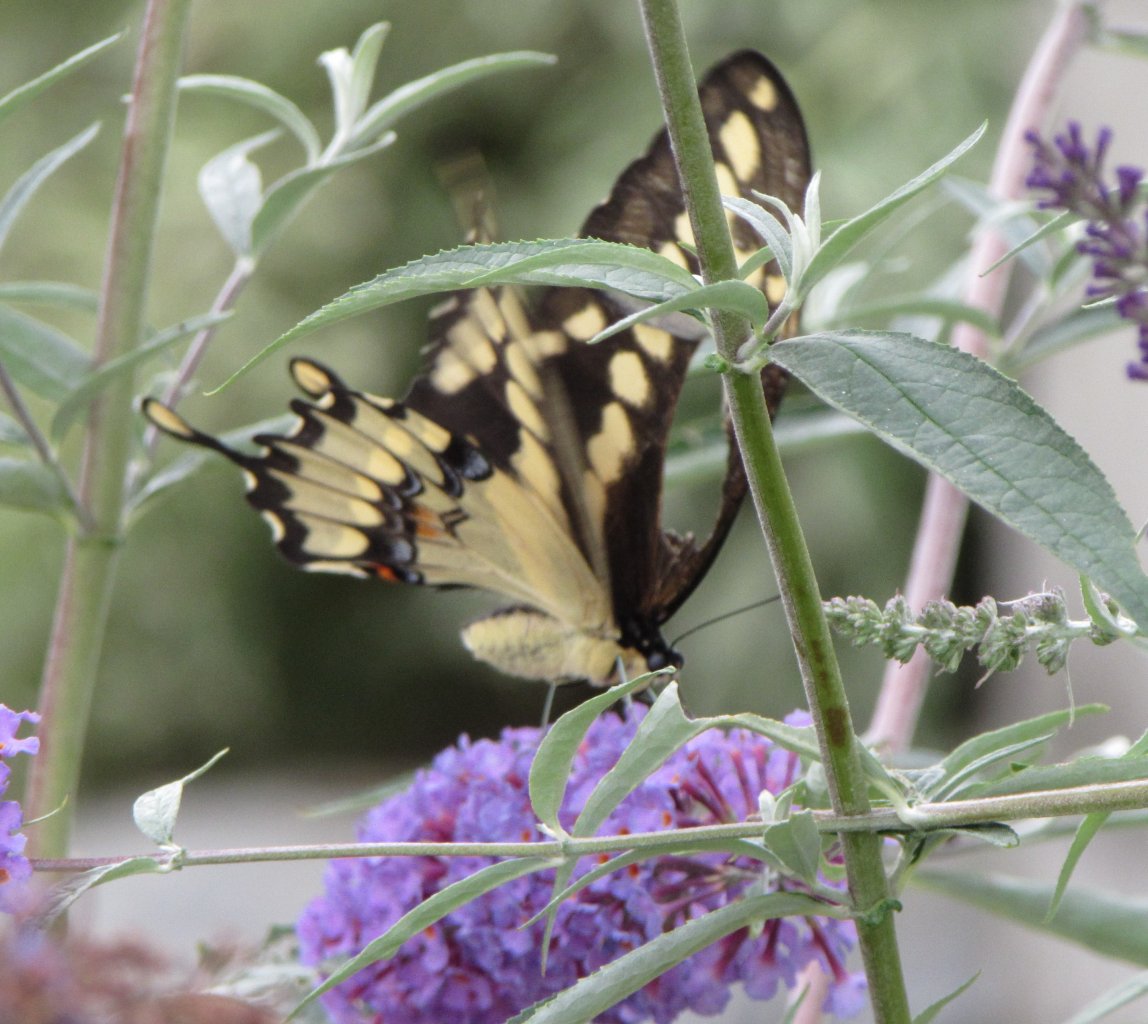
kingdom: Animalia
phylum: Arthropoda
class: Insecta
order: Lepidoptera
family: Papilionidae
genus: Papilio
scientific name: Papilio cresphontes
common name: Eastern Giant Swallowtail
